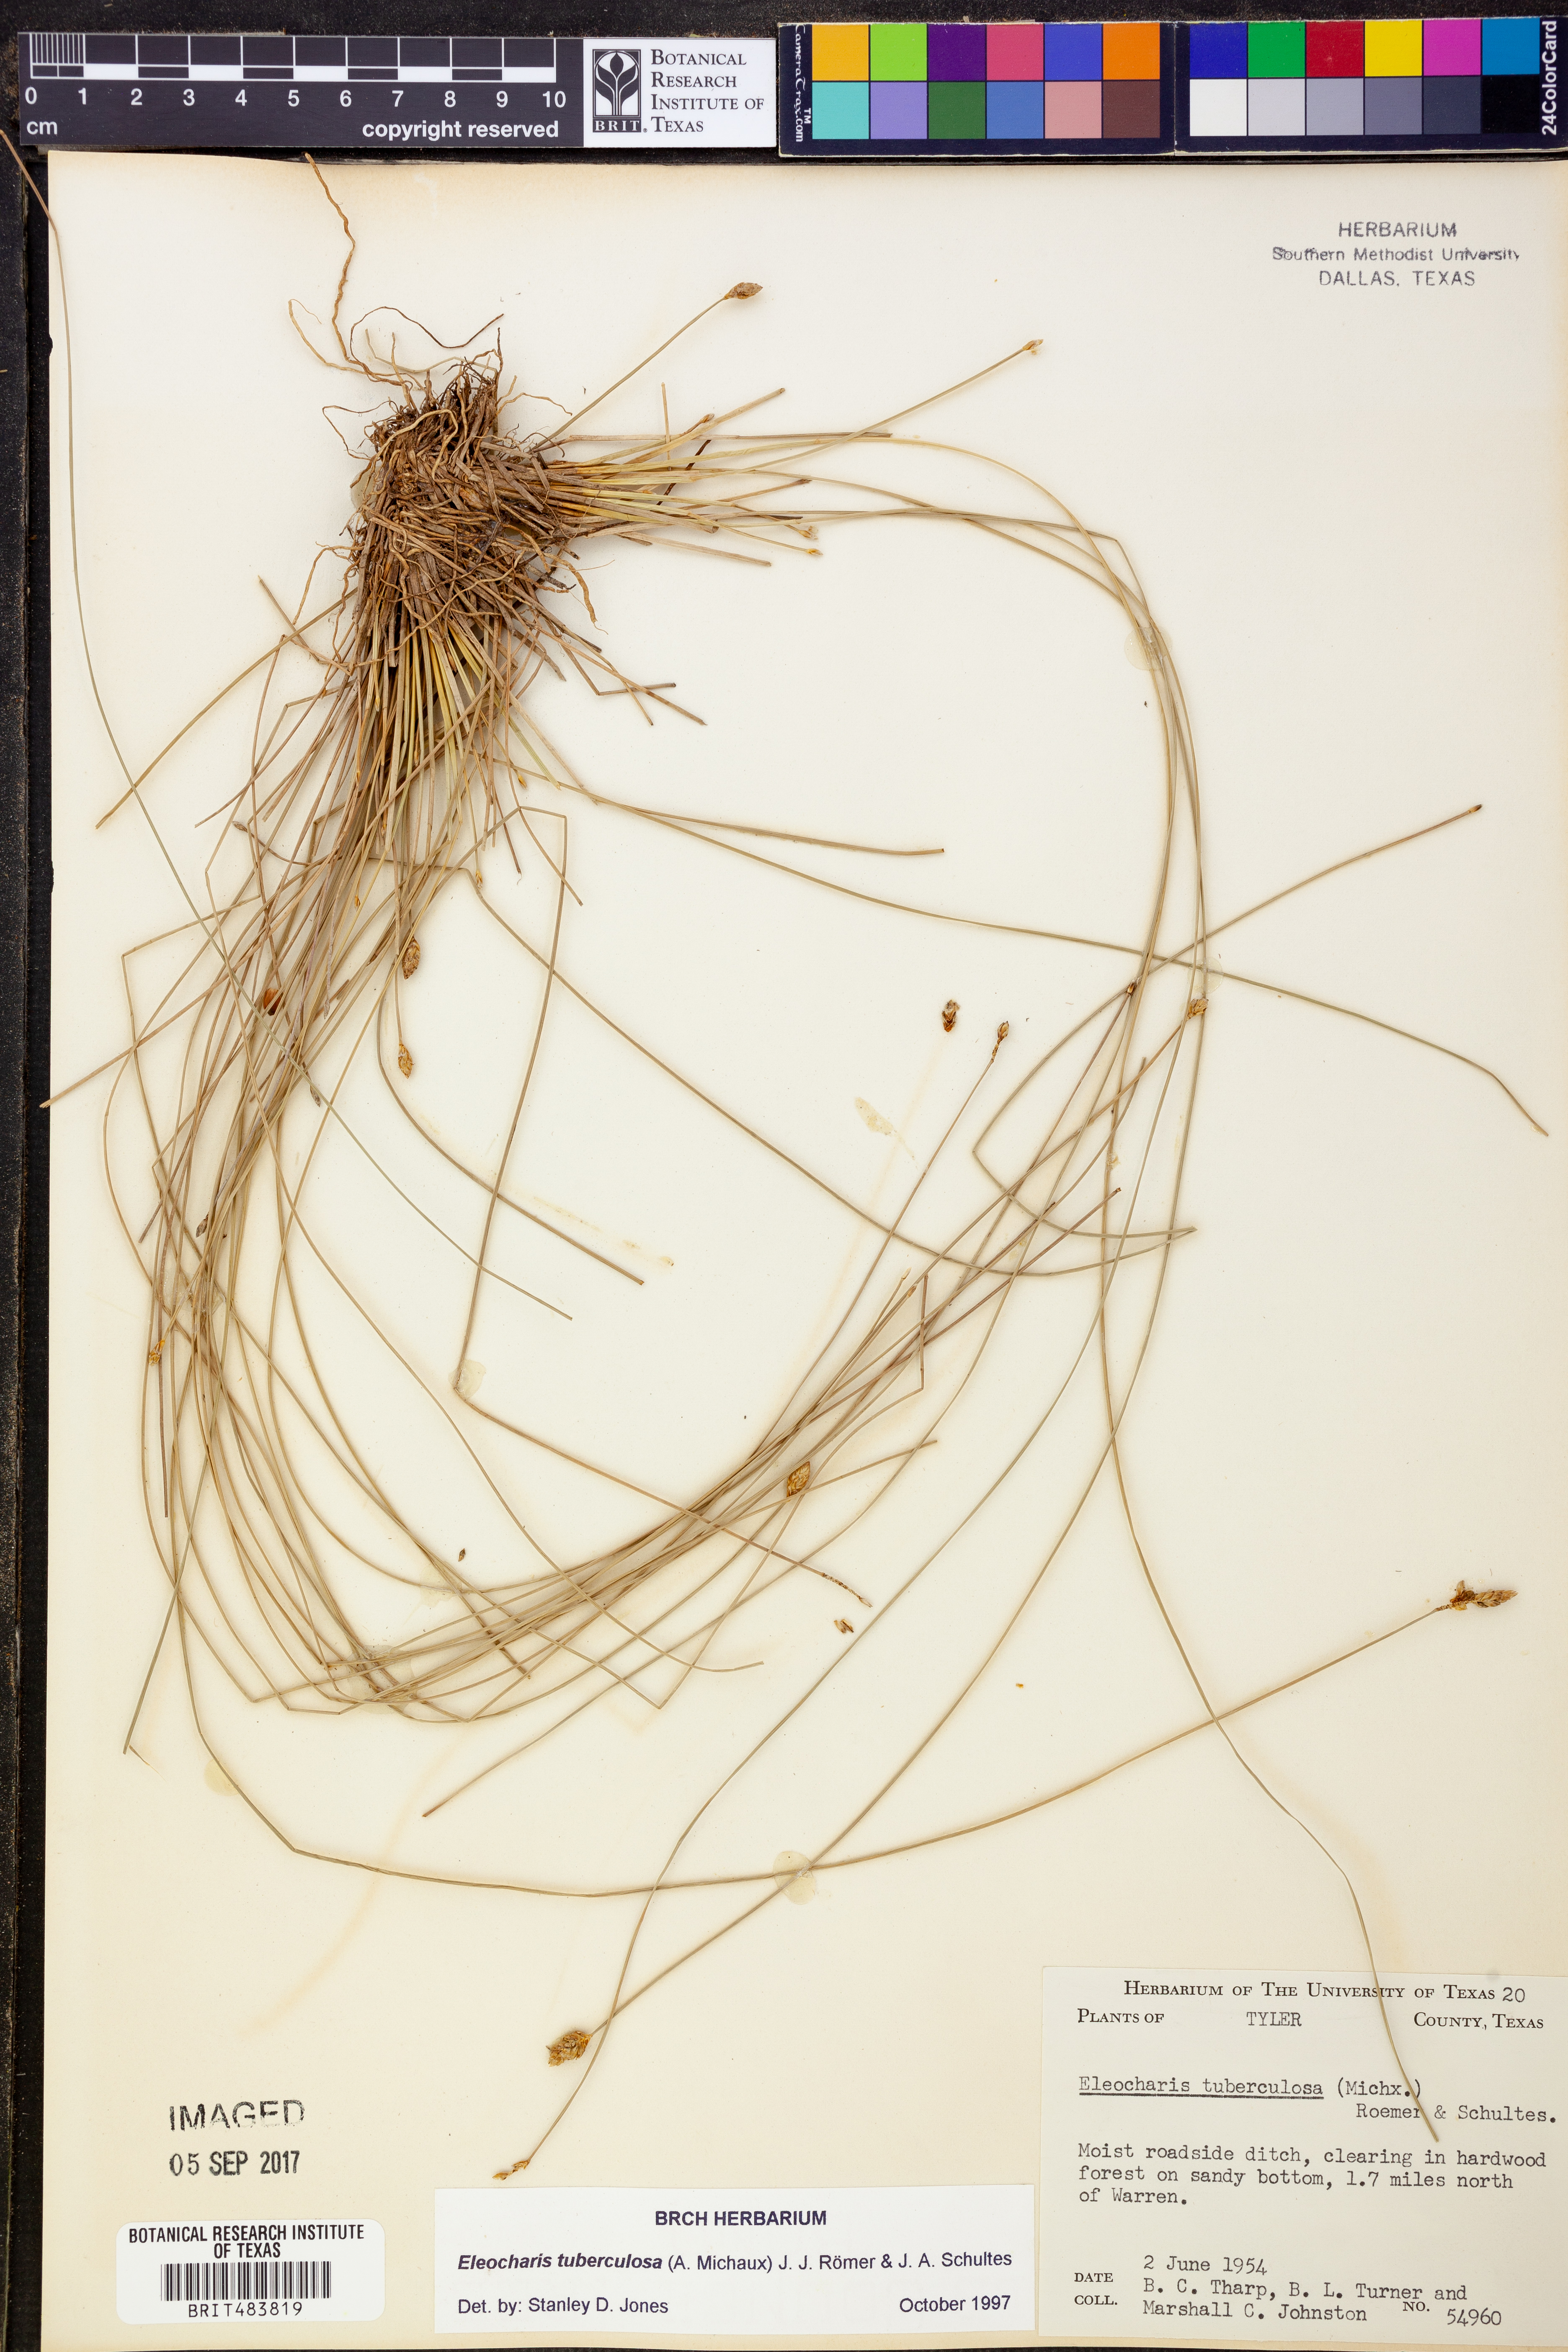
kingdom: Plantae
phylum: Tracheophyta
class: Liliopsida
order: Poales
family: Cyperaceae
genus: Eleocharis
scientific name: Eleocharis tuberculosa
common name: Cone-cup spikerush
